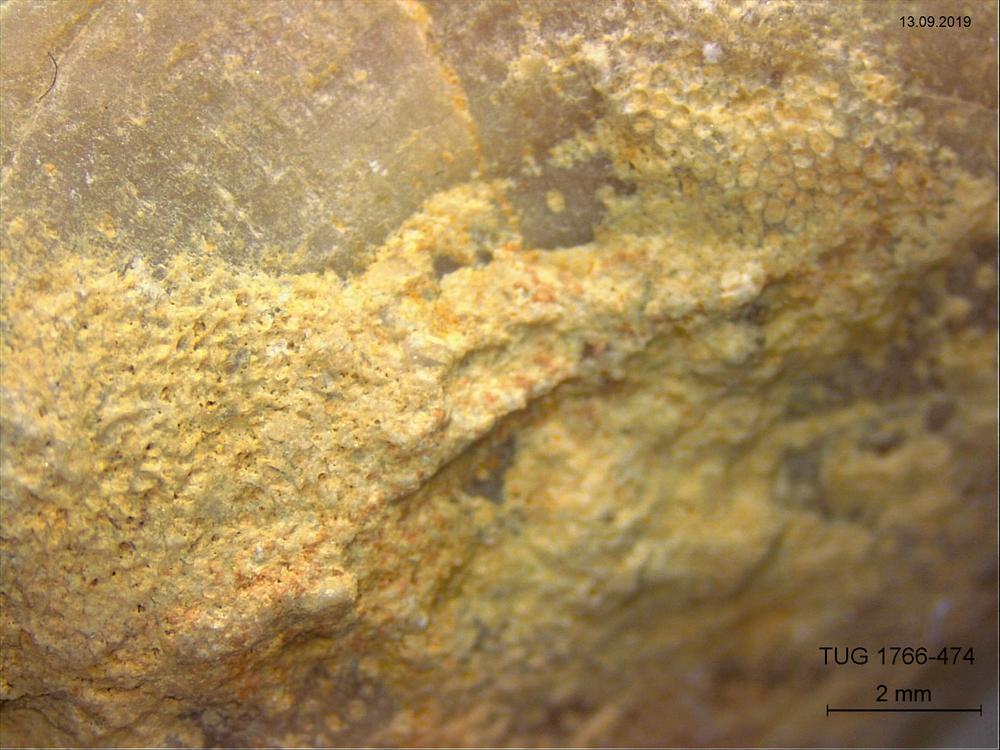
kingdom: Animalia
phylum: Bryozoa
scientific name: Bryozoa
